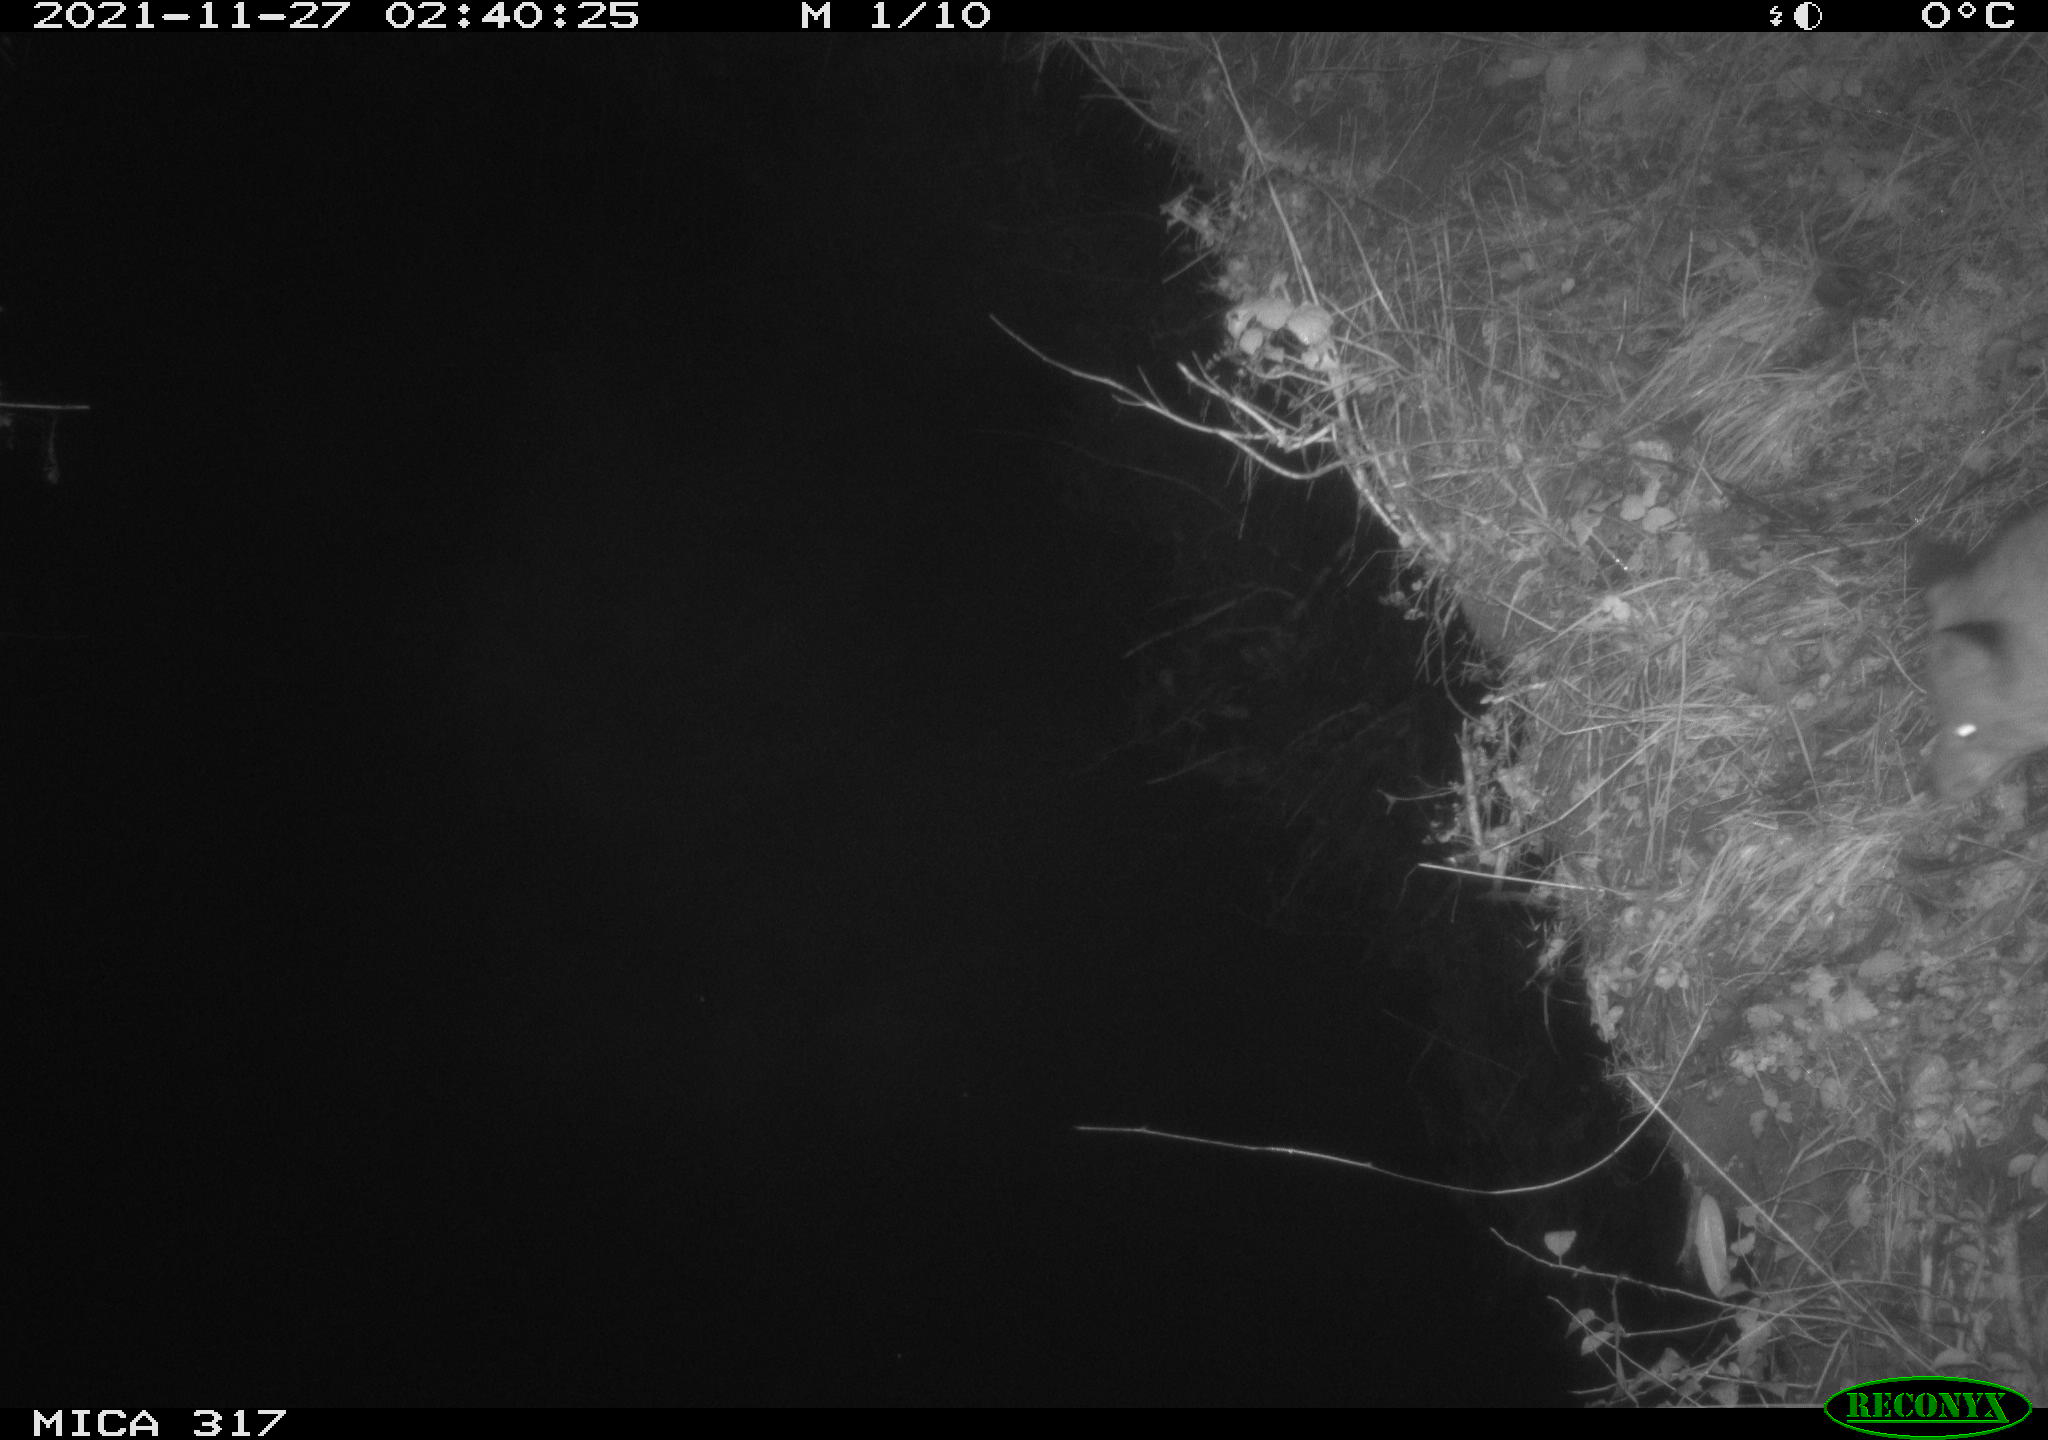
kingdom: Animalia
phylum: Chordata
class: Mammalia
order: Carnivora
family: Canidae
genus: Vulpes
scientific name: Vulpes vulpes
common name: Red fox
